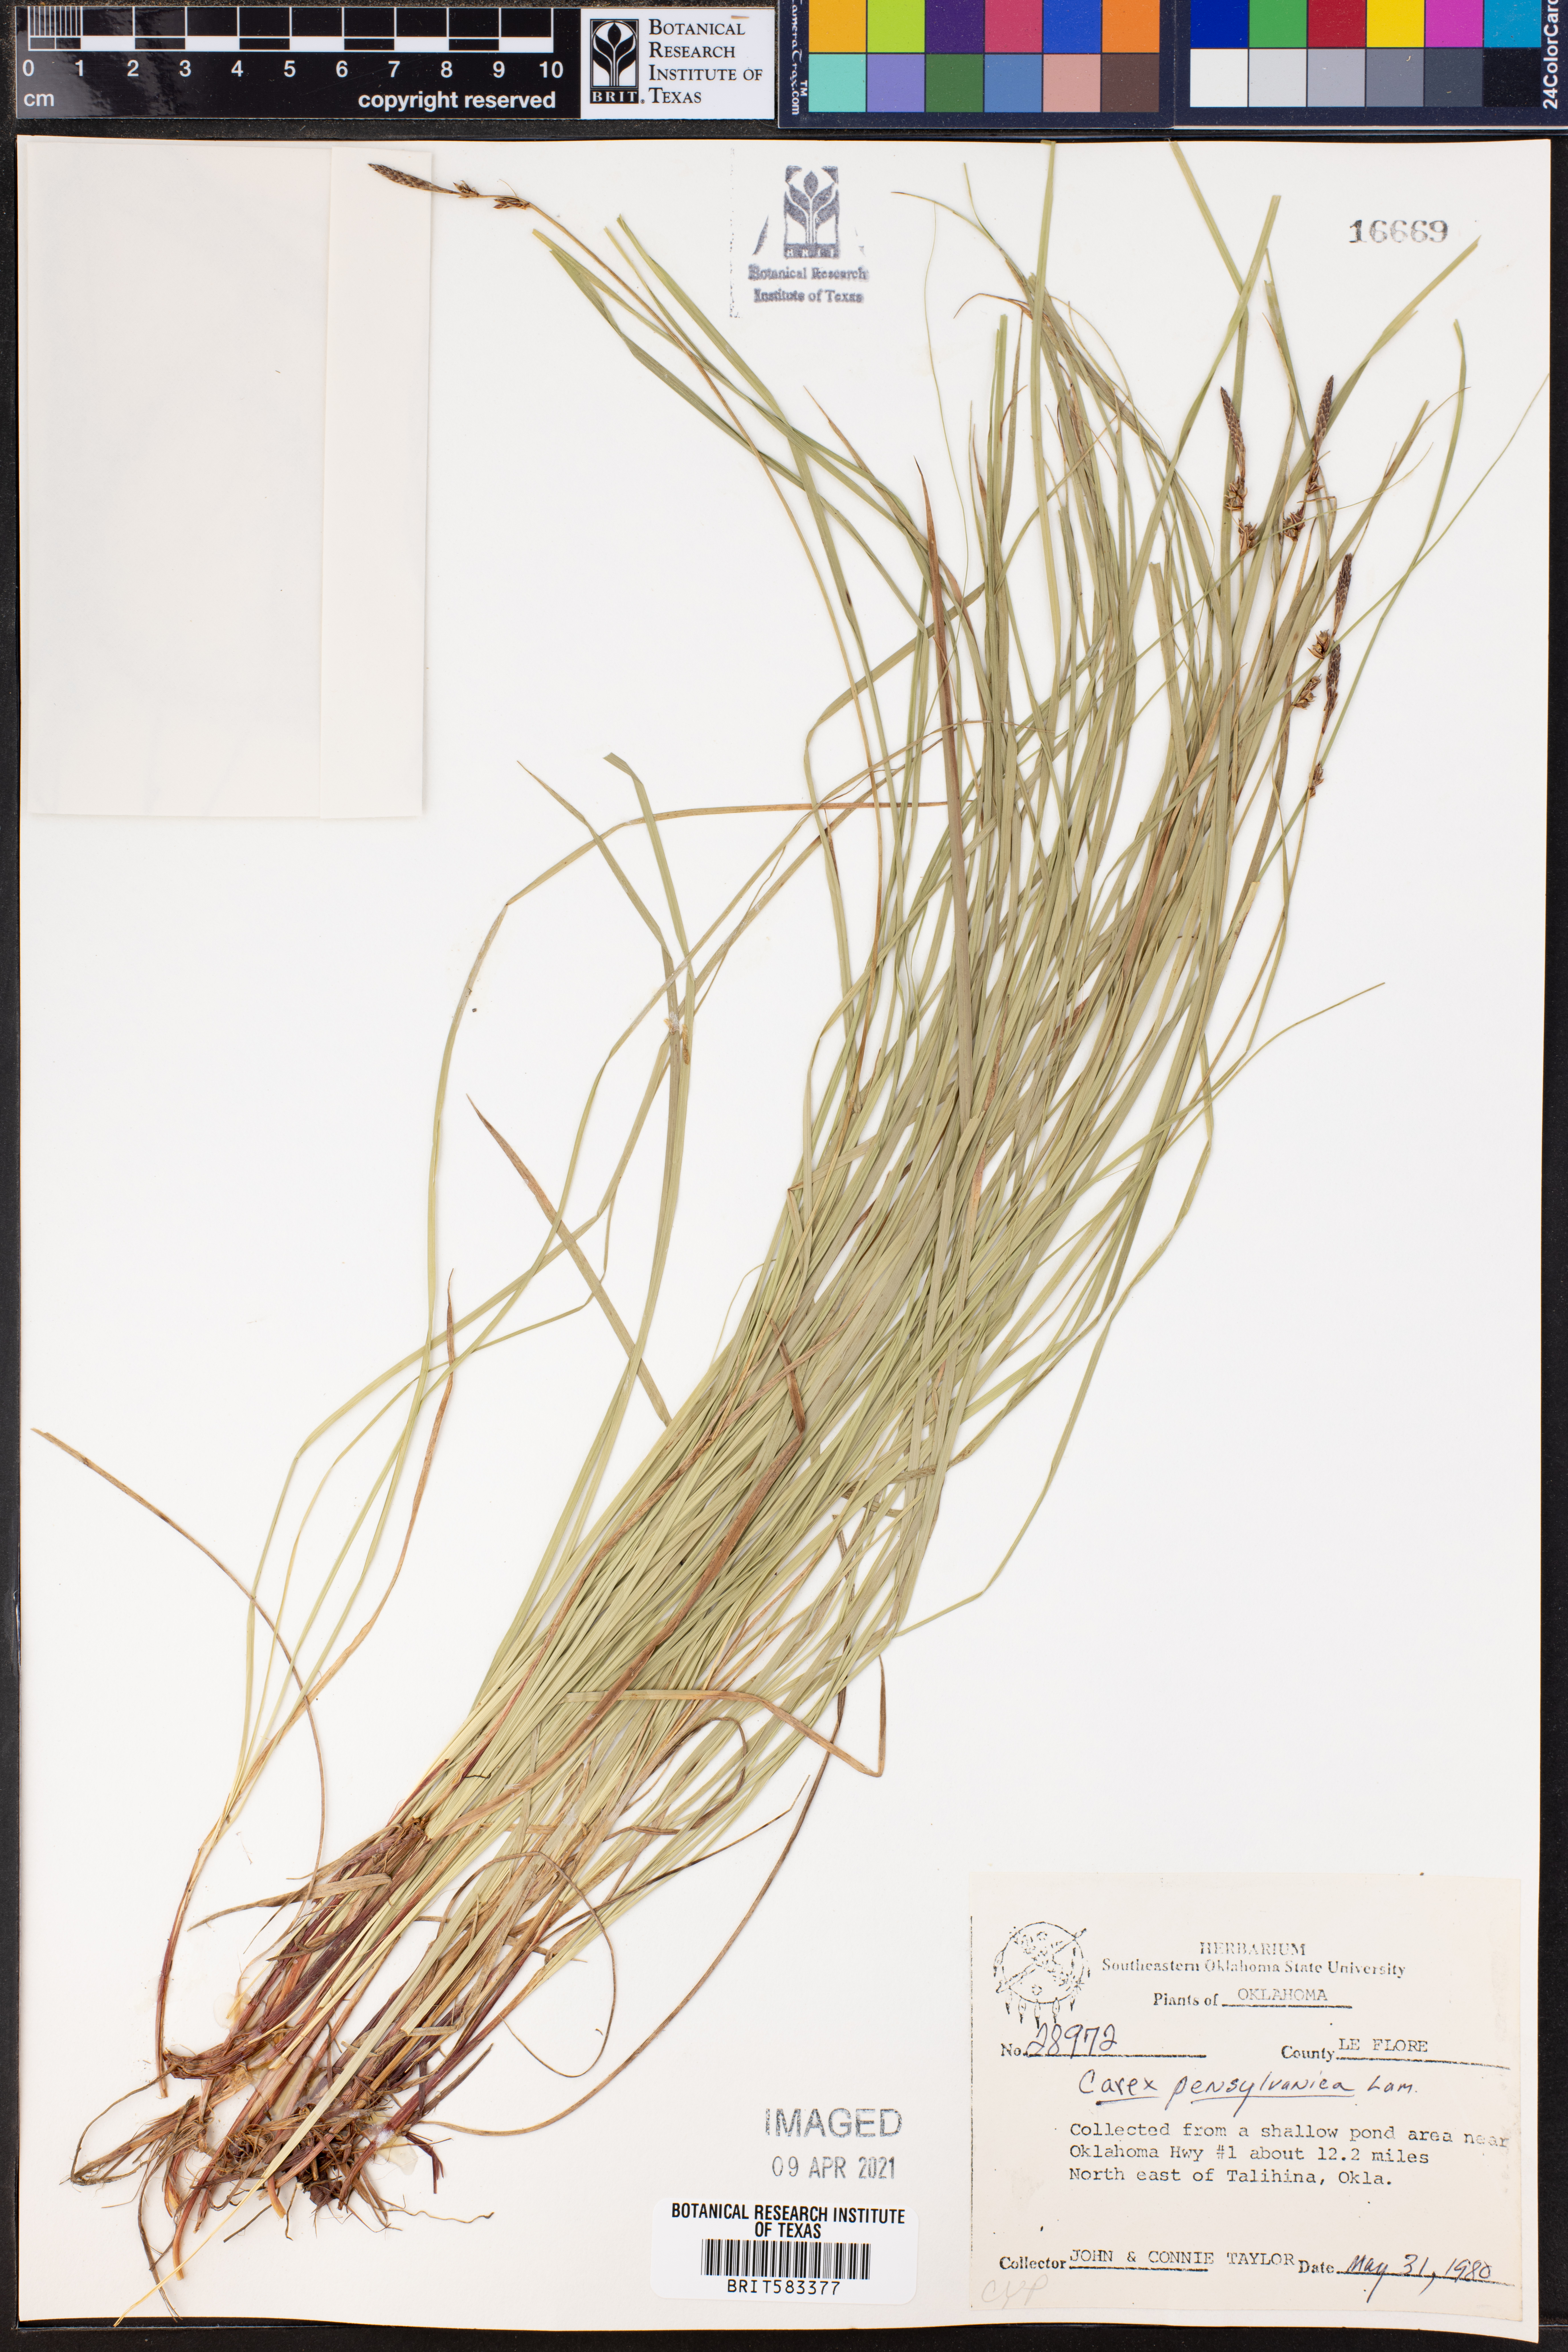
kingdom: Plantae
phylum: Tracheophyta
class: Liliopsida
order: Poales
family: Cyperaceae
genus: Carex
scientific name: Carex pensylvanica
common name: Common oak sedge
